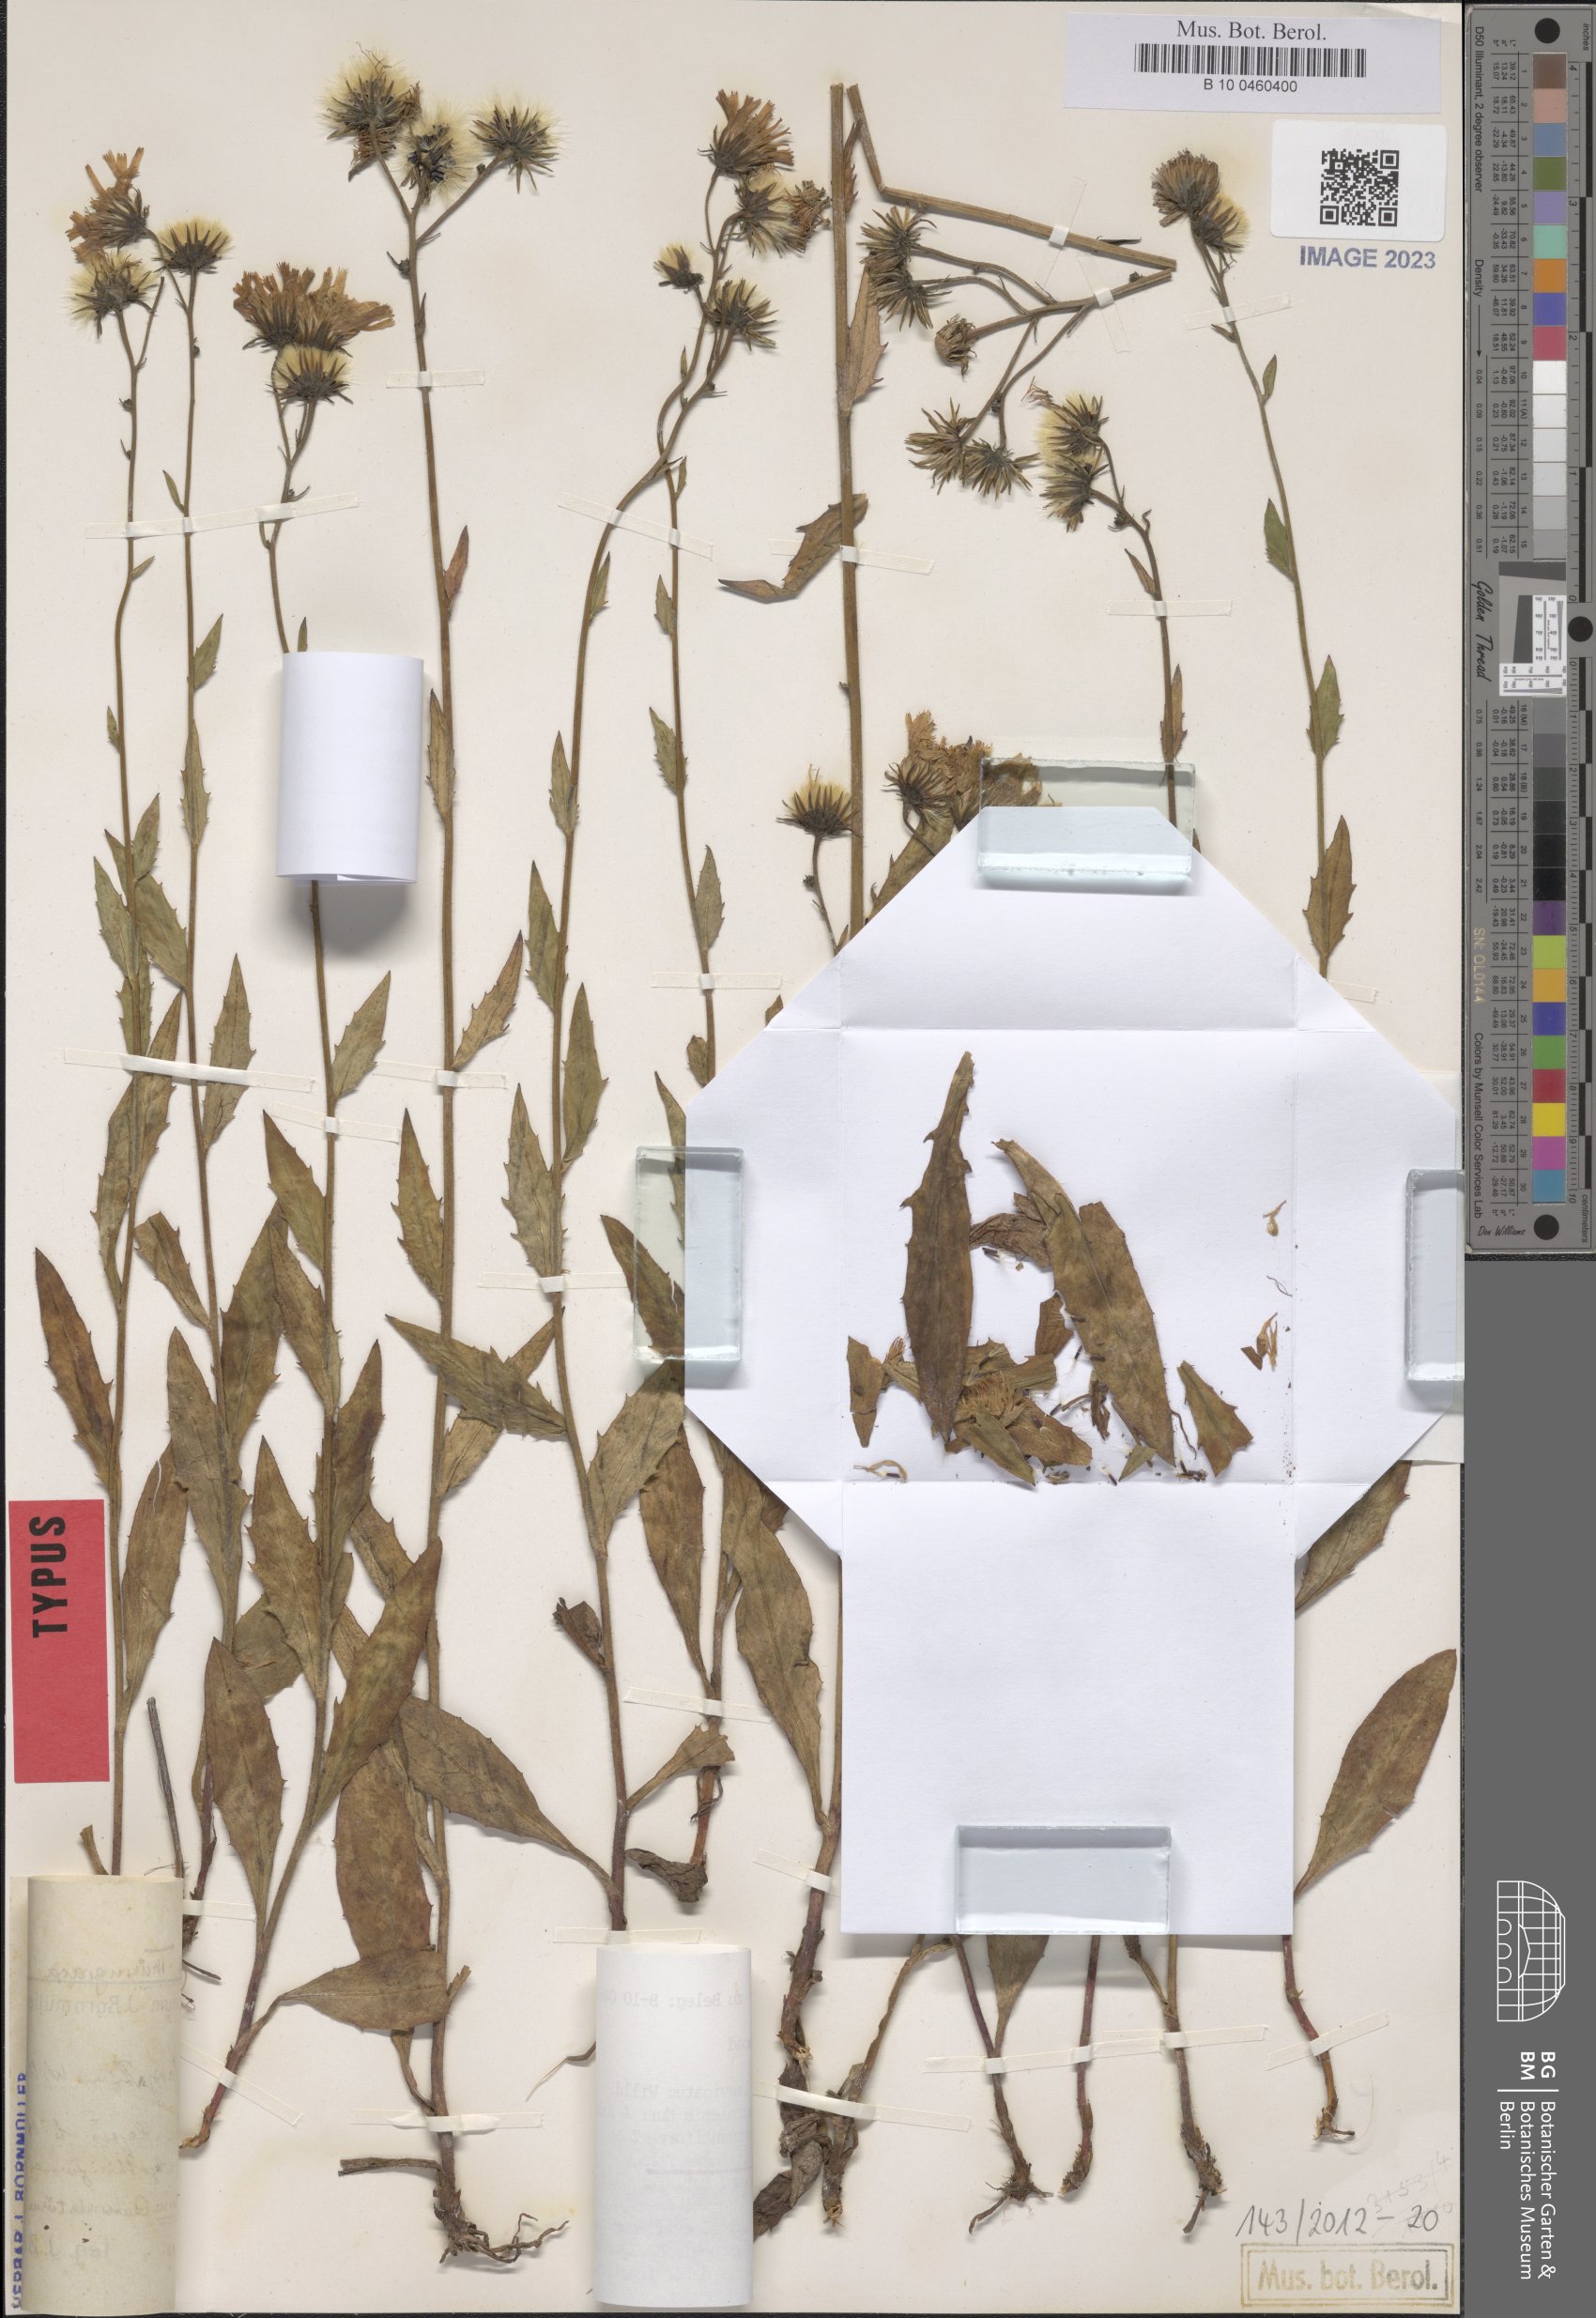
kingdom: Plantae
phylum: Tracheophyta
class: Magnoliopsida
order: Asterales
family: Asteraceae
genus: Hieracium
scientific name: Hieracium laevigatum
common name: Smooth hawkweed
